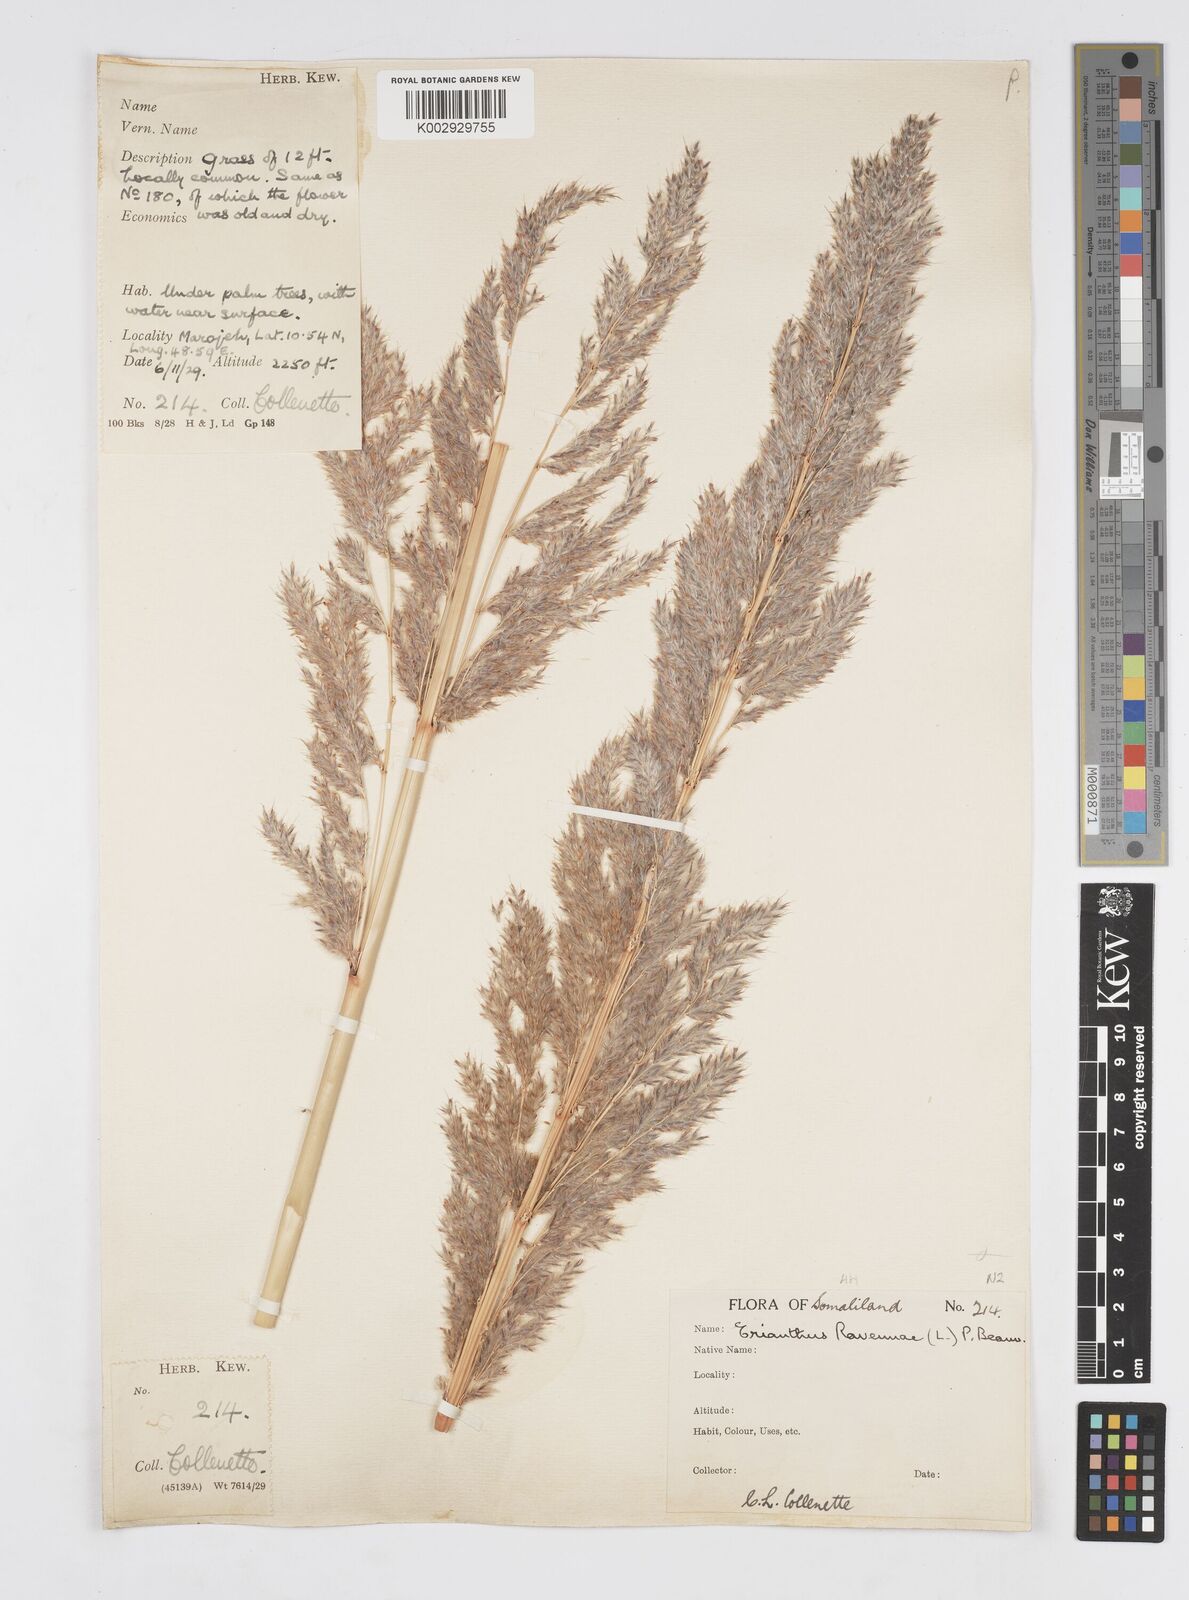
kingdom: Plantae
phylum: Tracheophyta
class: Liliopsida
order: Poales
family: Poaceae
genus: Tripidium
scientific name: Tripidium ravennae
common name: Ravenna grass
